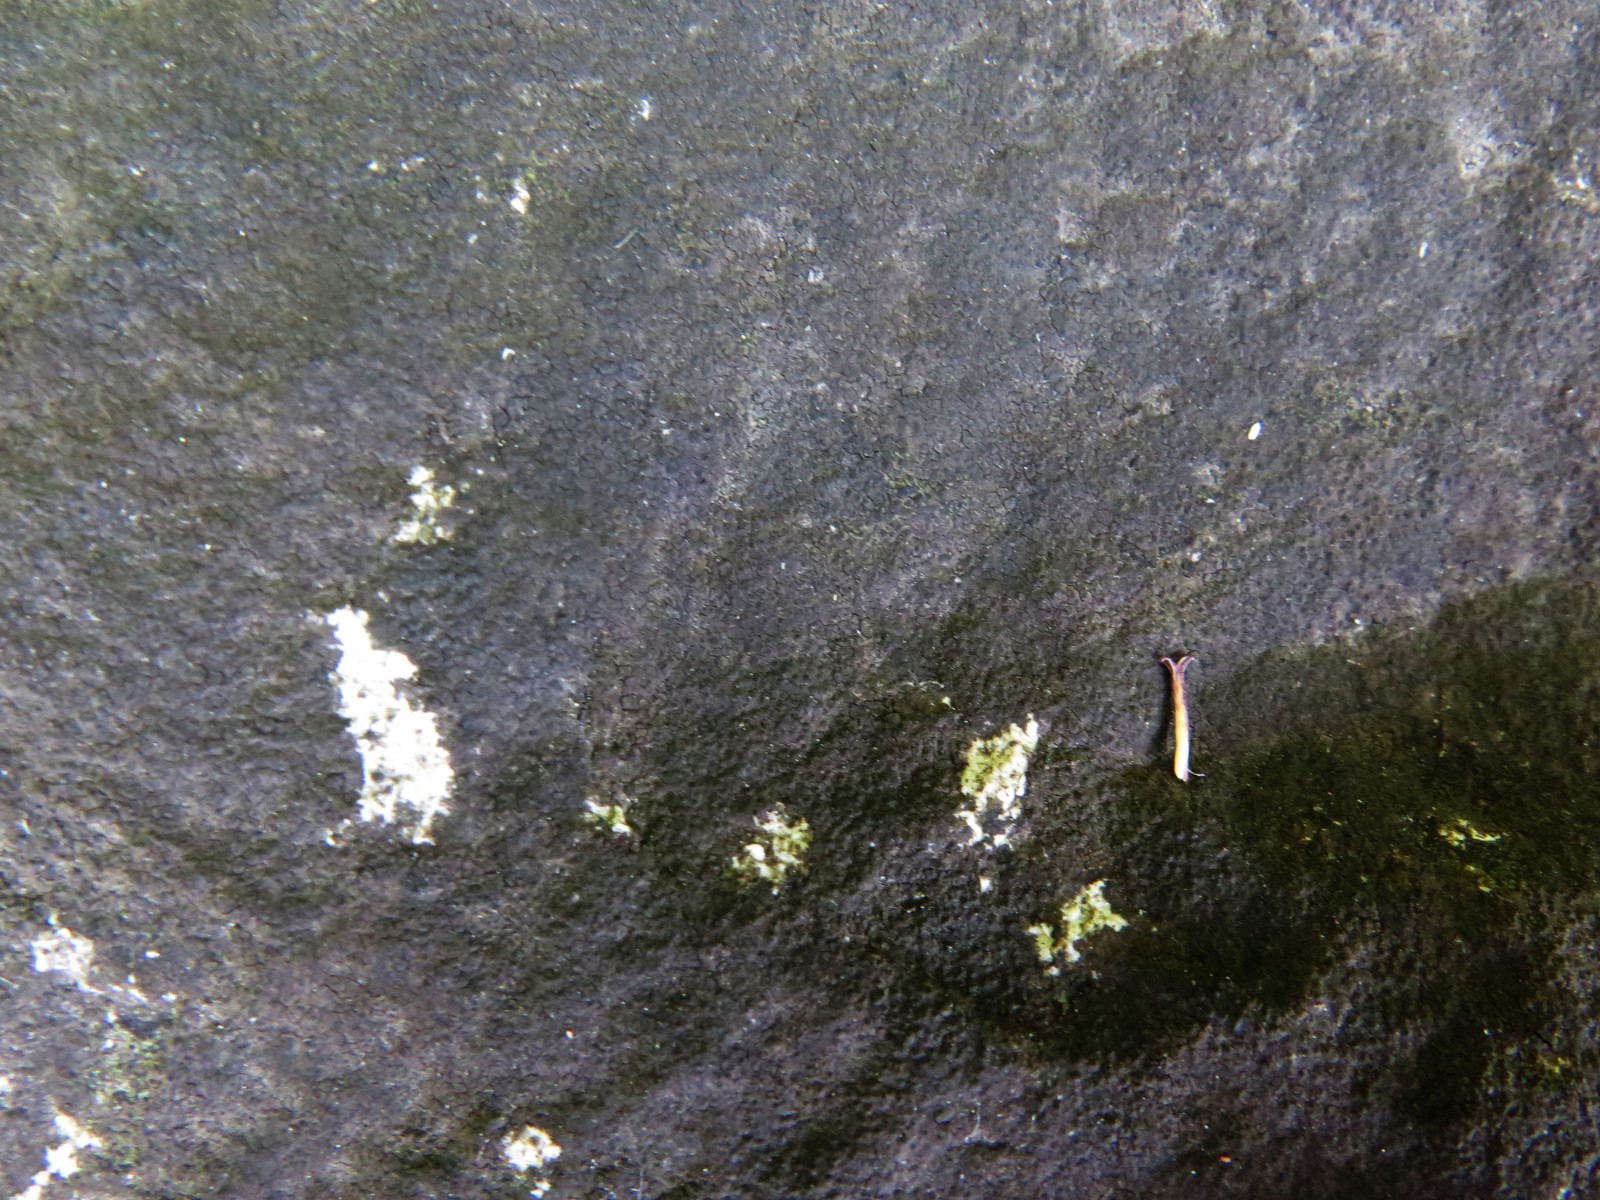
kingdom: Fungi
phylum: Ascomycota
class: Eurotiomycetes
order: Verrucariales
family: Verrucariaceae
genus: Verrucaria
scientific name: Verrucaria nigrescens
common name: sortbrun vortelav
